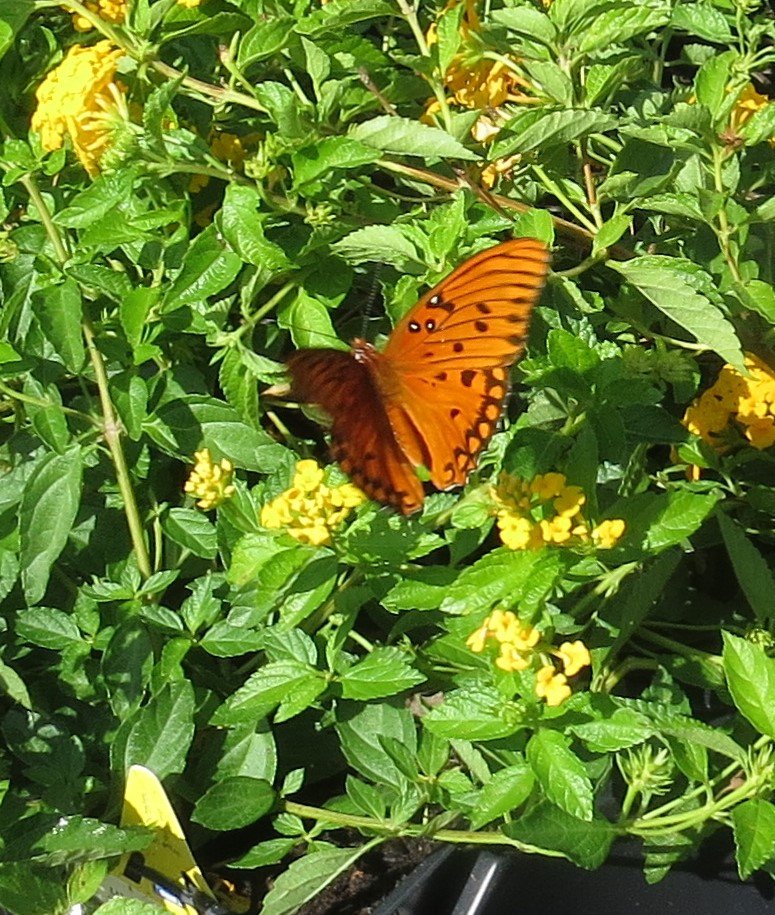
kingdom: Animalia
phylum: Arthropoda
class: Insecta
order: Lepidoptera
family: Nymphalidae
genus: Dione
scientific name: Dione vanillae
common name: Gulf Fritillary
